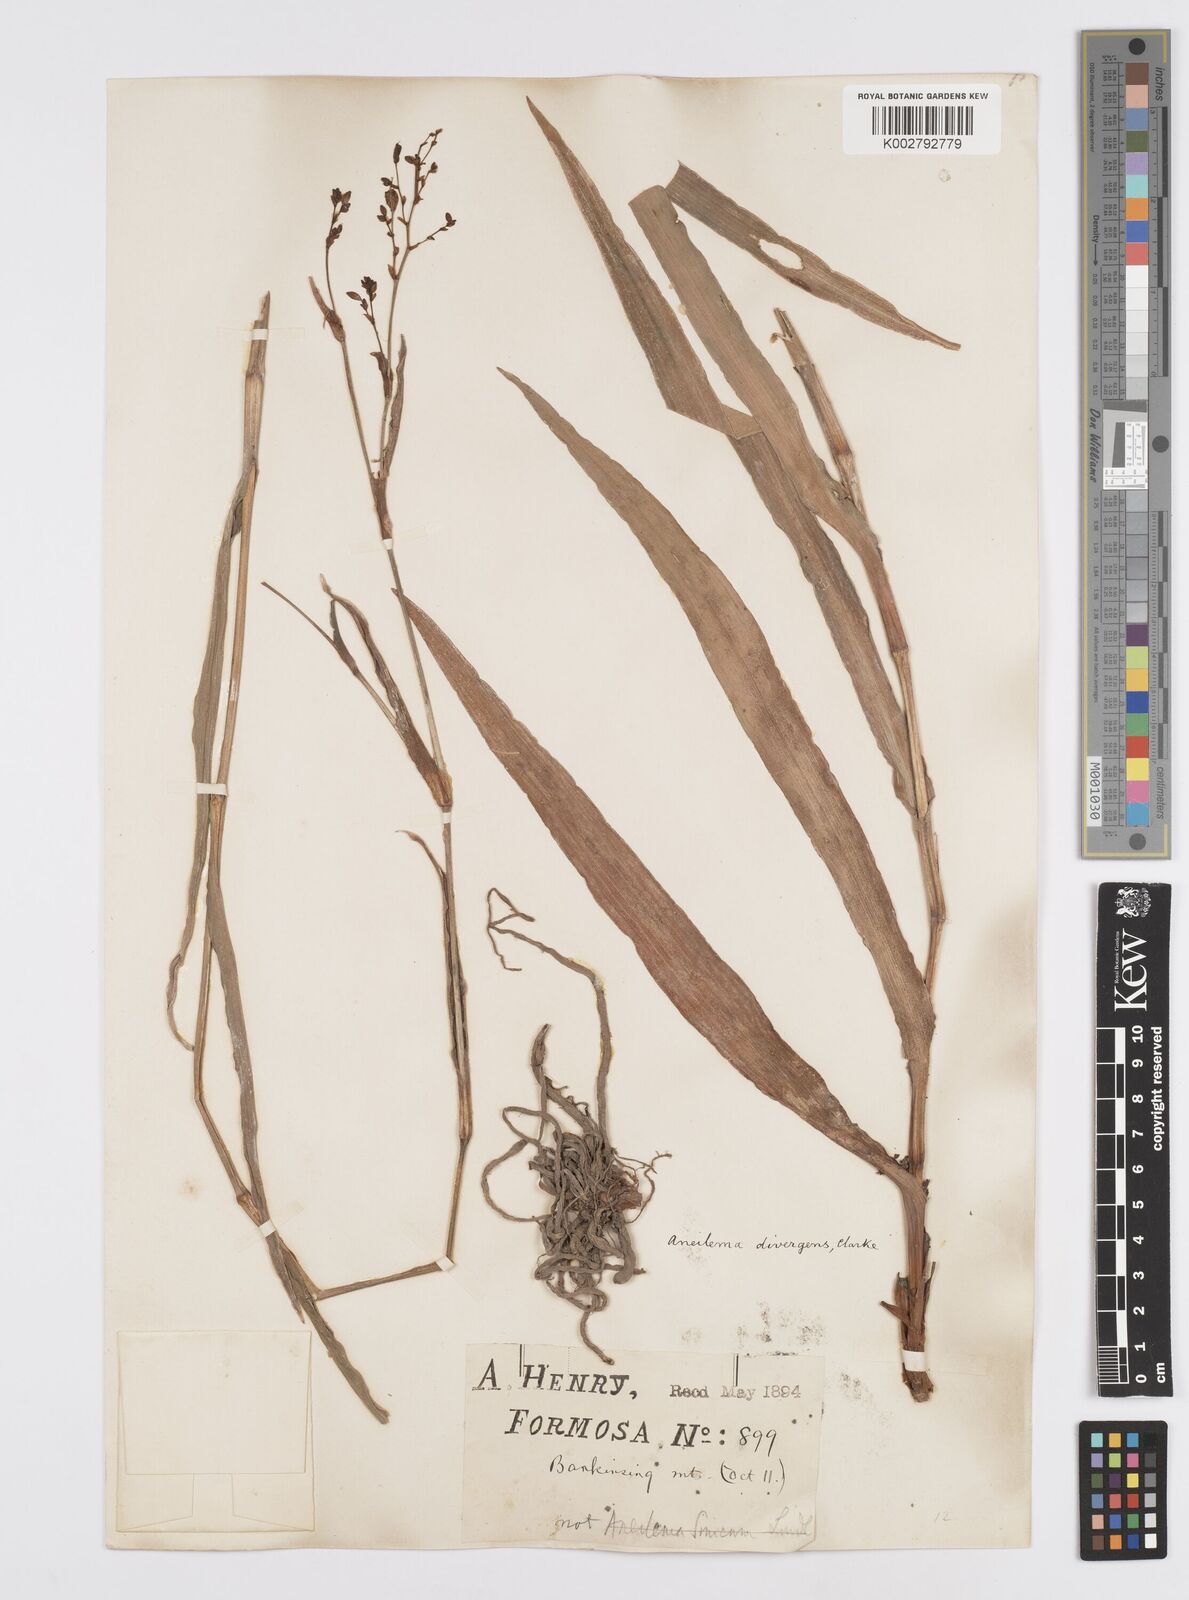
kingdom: Plantae
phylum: Tracheophyta
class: Liliopsida
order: Commelinales
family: Commelinaceae
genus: Murdannia
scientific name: Murdannia divergens
